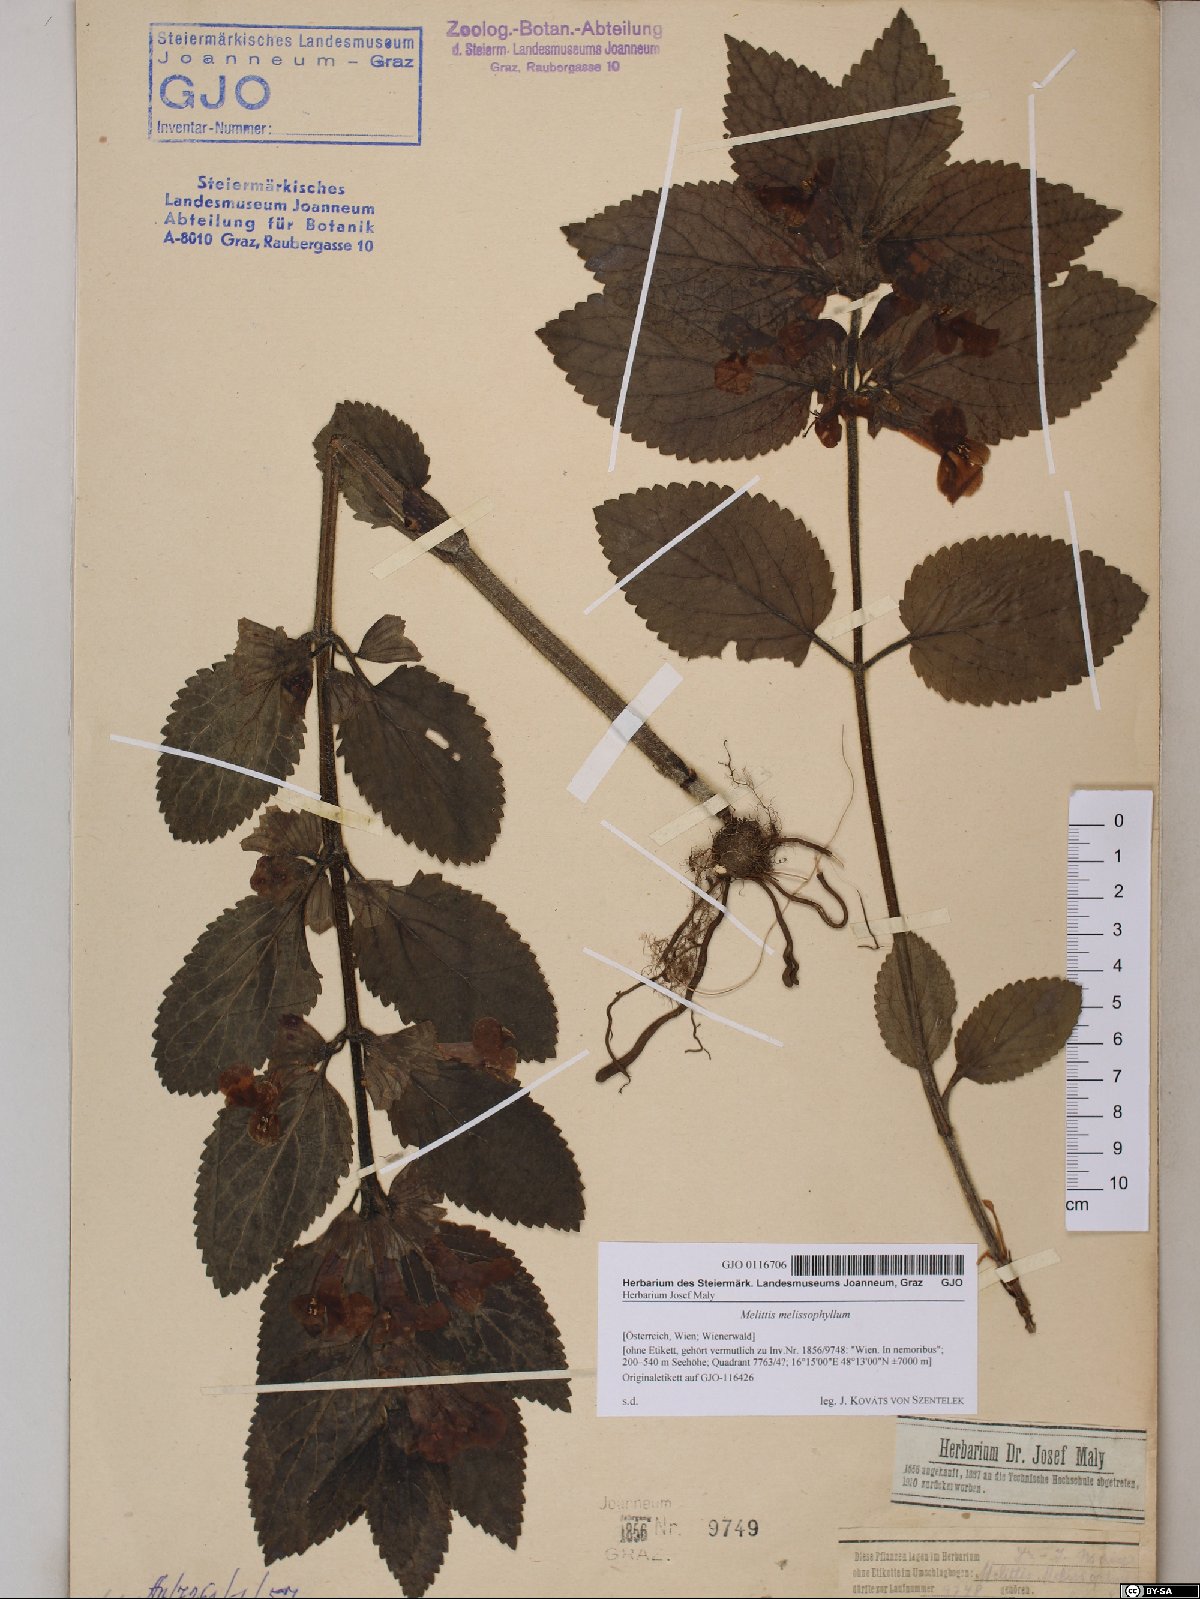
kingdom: Plantae
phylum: Tracheophyta
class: Magnoliopsida
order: Lamiales
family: Lamiaceae
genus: Melittis
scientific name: Melittis melissophyllum
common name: Bastard balm
